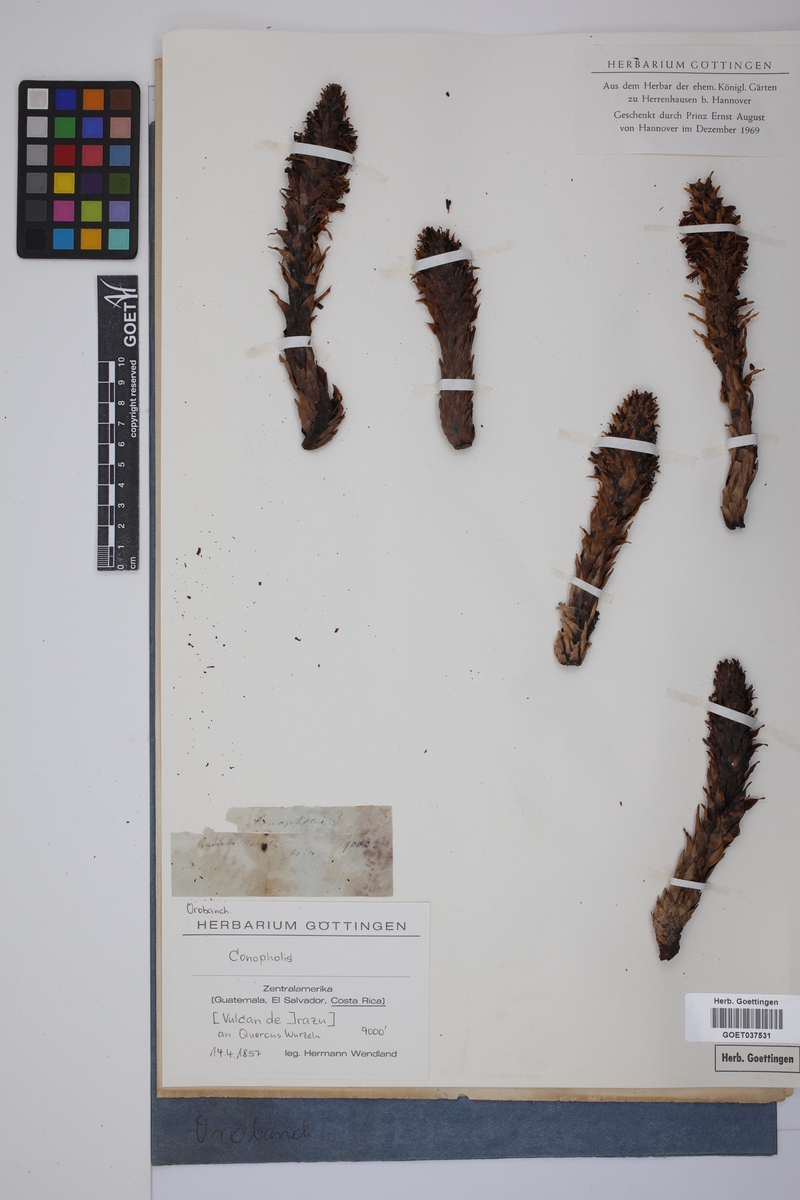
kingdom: Plantae
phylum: Tracheophyta
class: Magnoliopsida
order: Lamiales
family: Orobanchaceae
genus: Conopholis
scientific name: Conopholis
